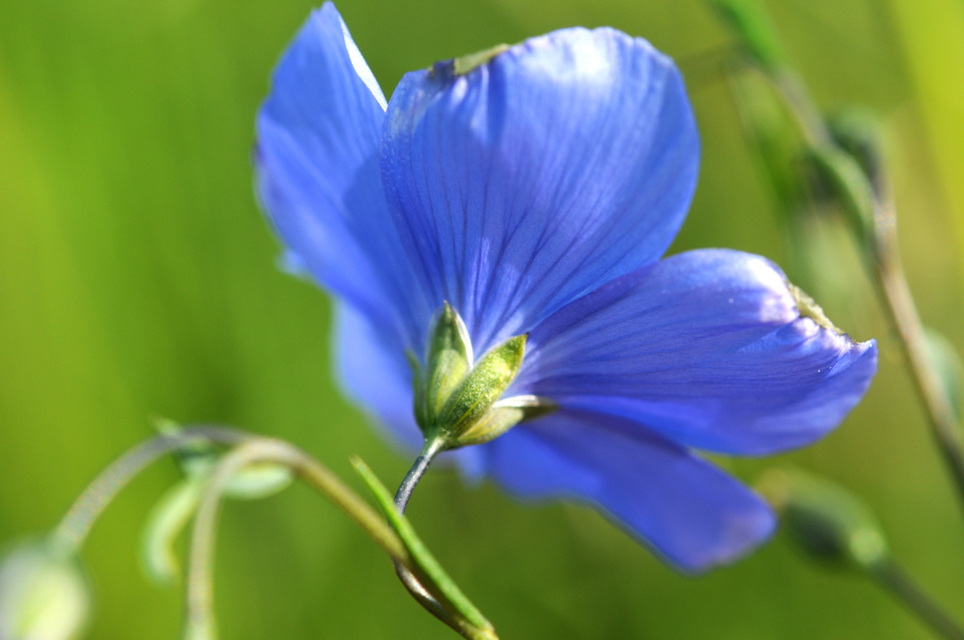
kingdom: Plantae
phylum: Tracheophyta
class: Magnoliopsida
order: Malpighiales
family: Linaceae
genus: Linum
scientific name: Linum austriacum
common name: Austrian flax
